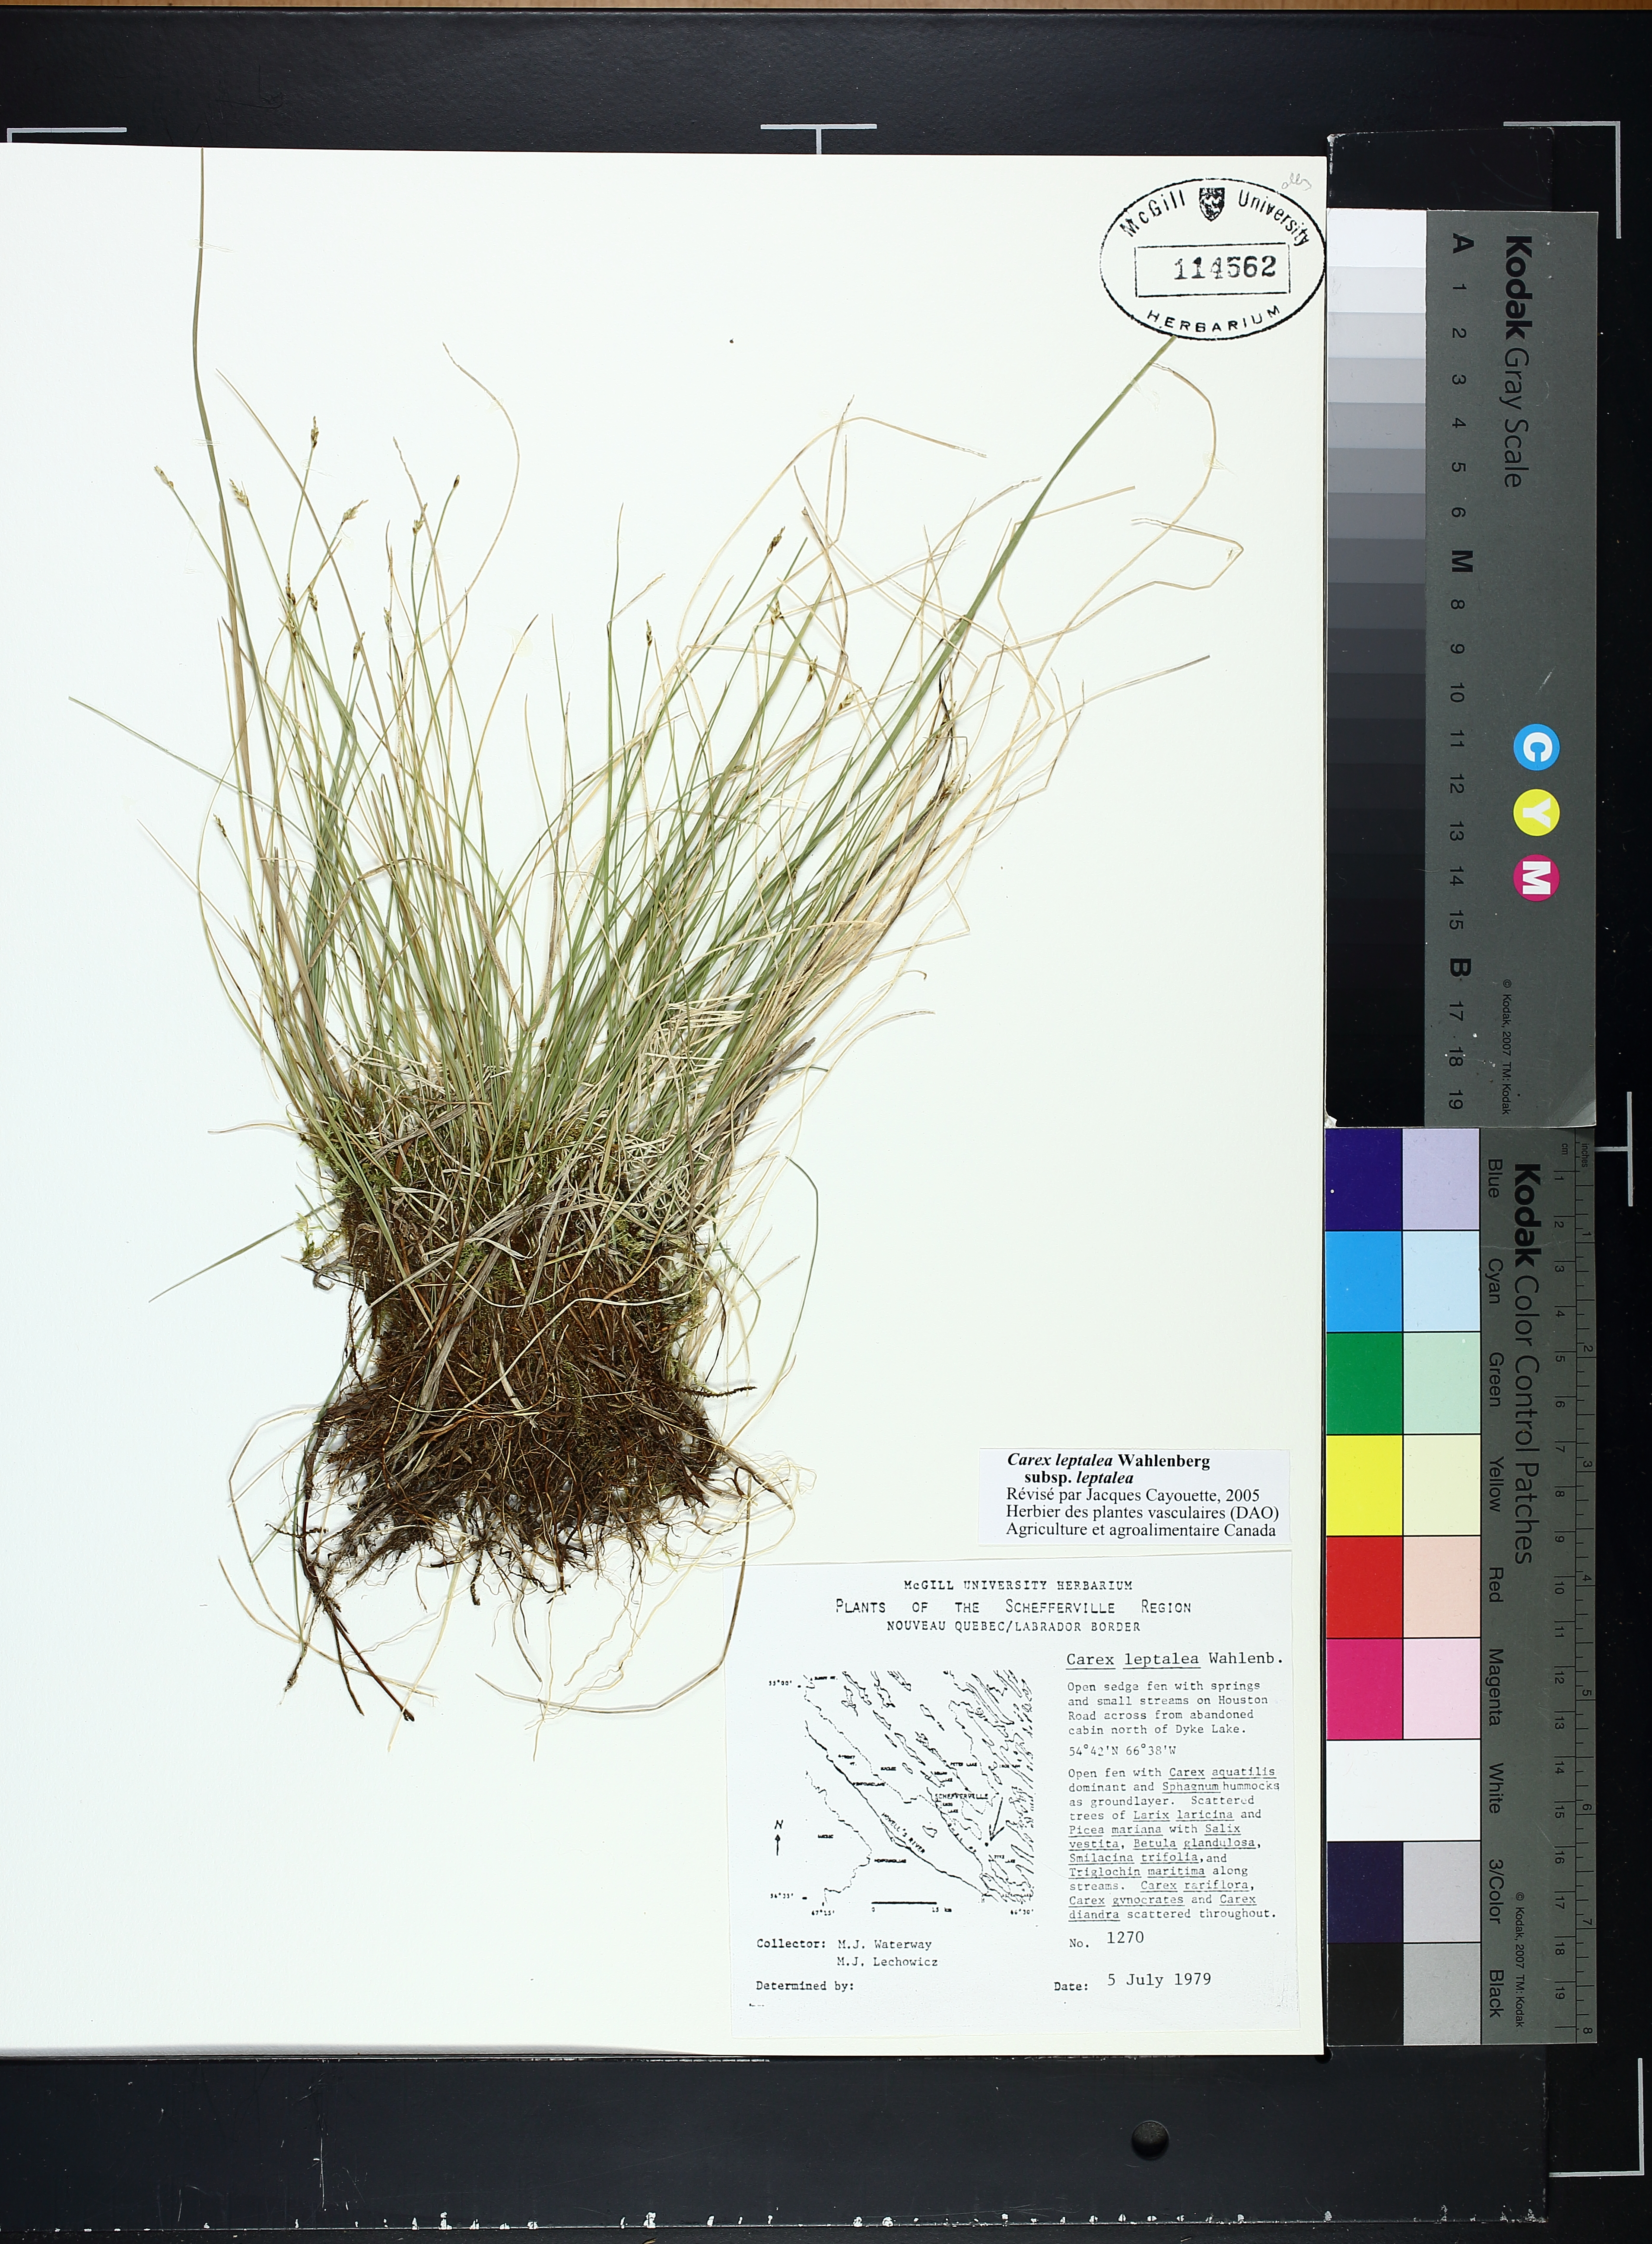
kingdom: Plantae
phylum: Tracheophyta
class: Liliopsida
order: Poales
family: Cyperaceae
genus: Carex
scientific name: Carex leptalea
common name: Bristly-stalked sedge
